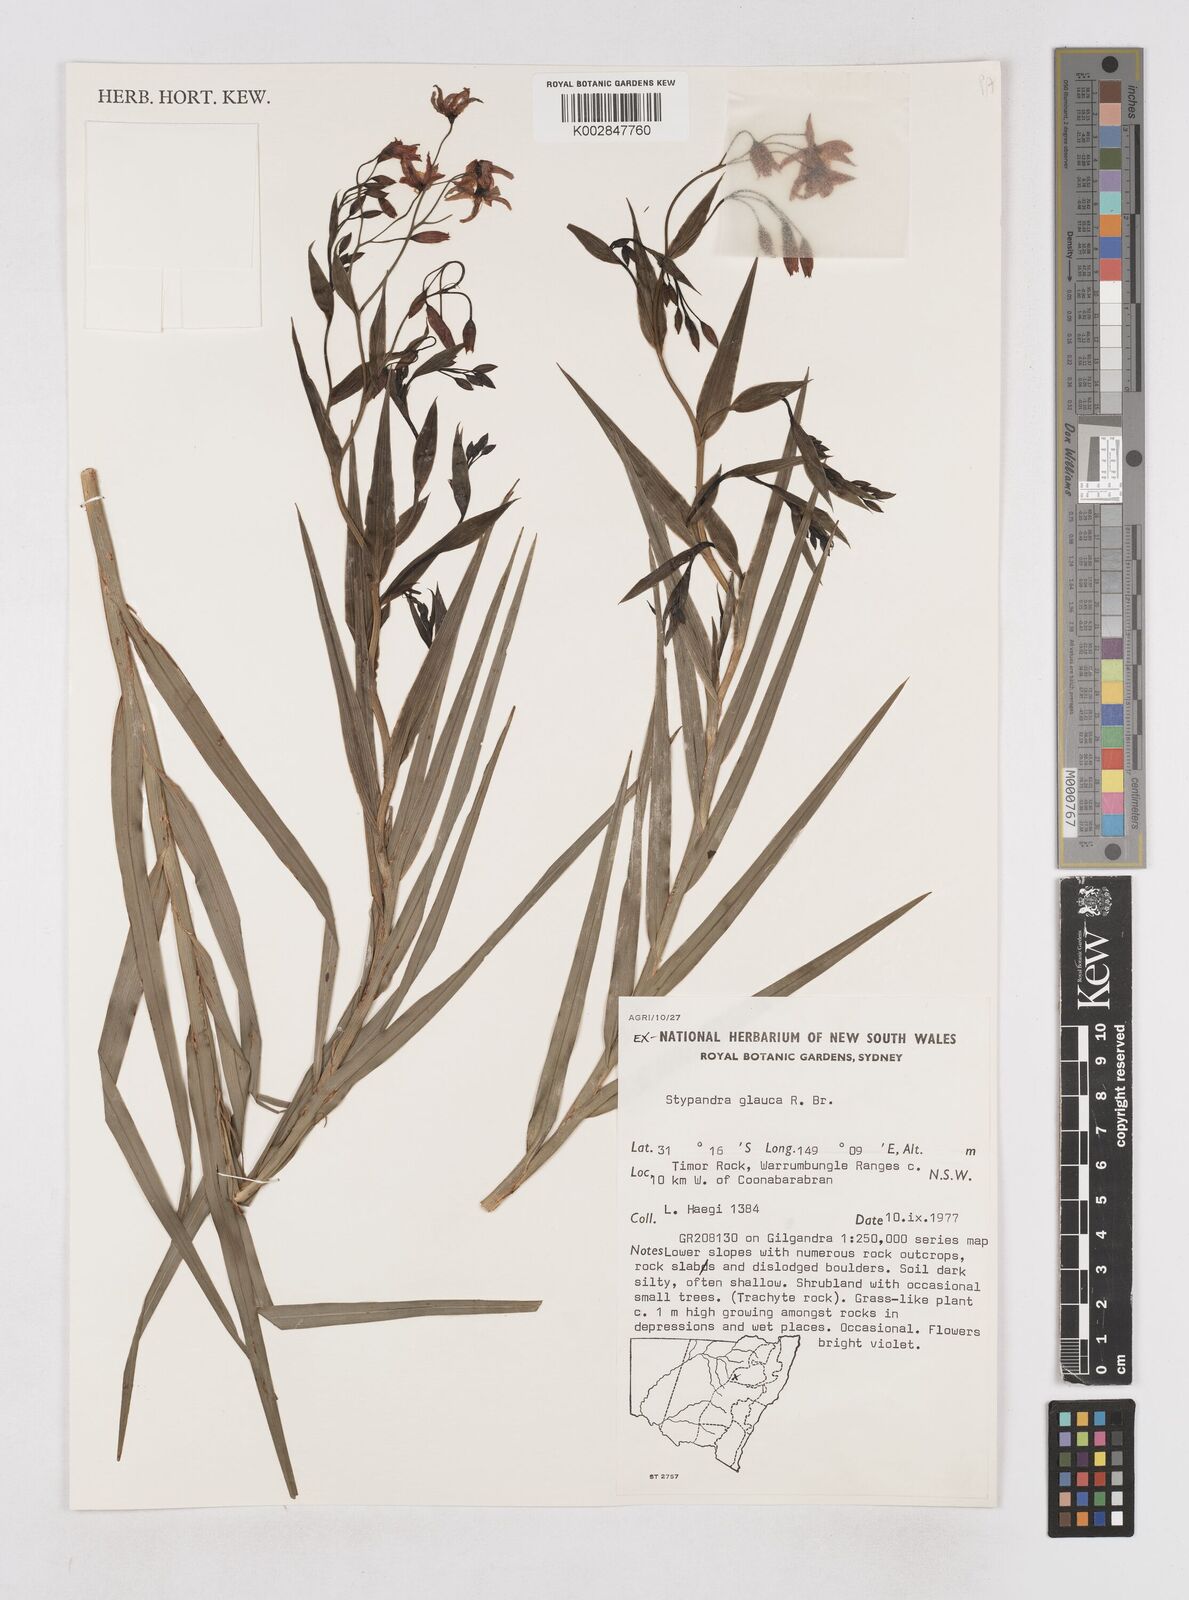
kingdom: Plantae
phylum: Tracheophyta
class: Liliopsida
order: Asparagales
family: Asphodelaceae
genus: Stypandra
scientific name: Stypandra glauca
